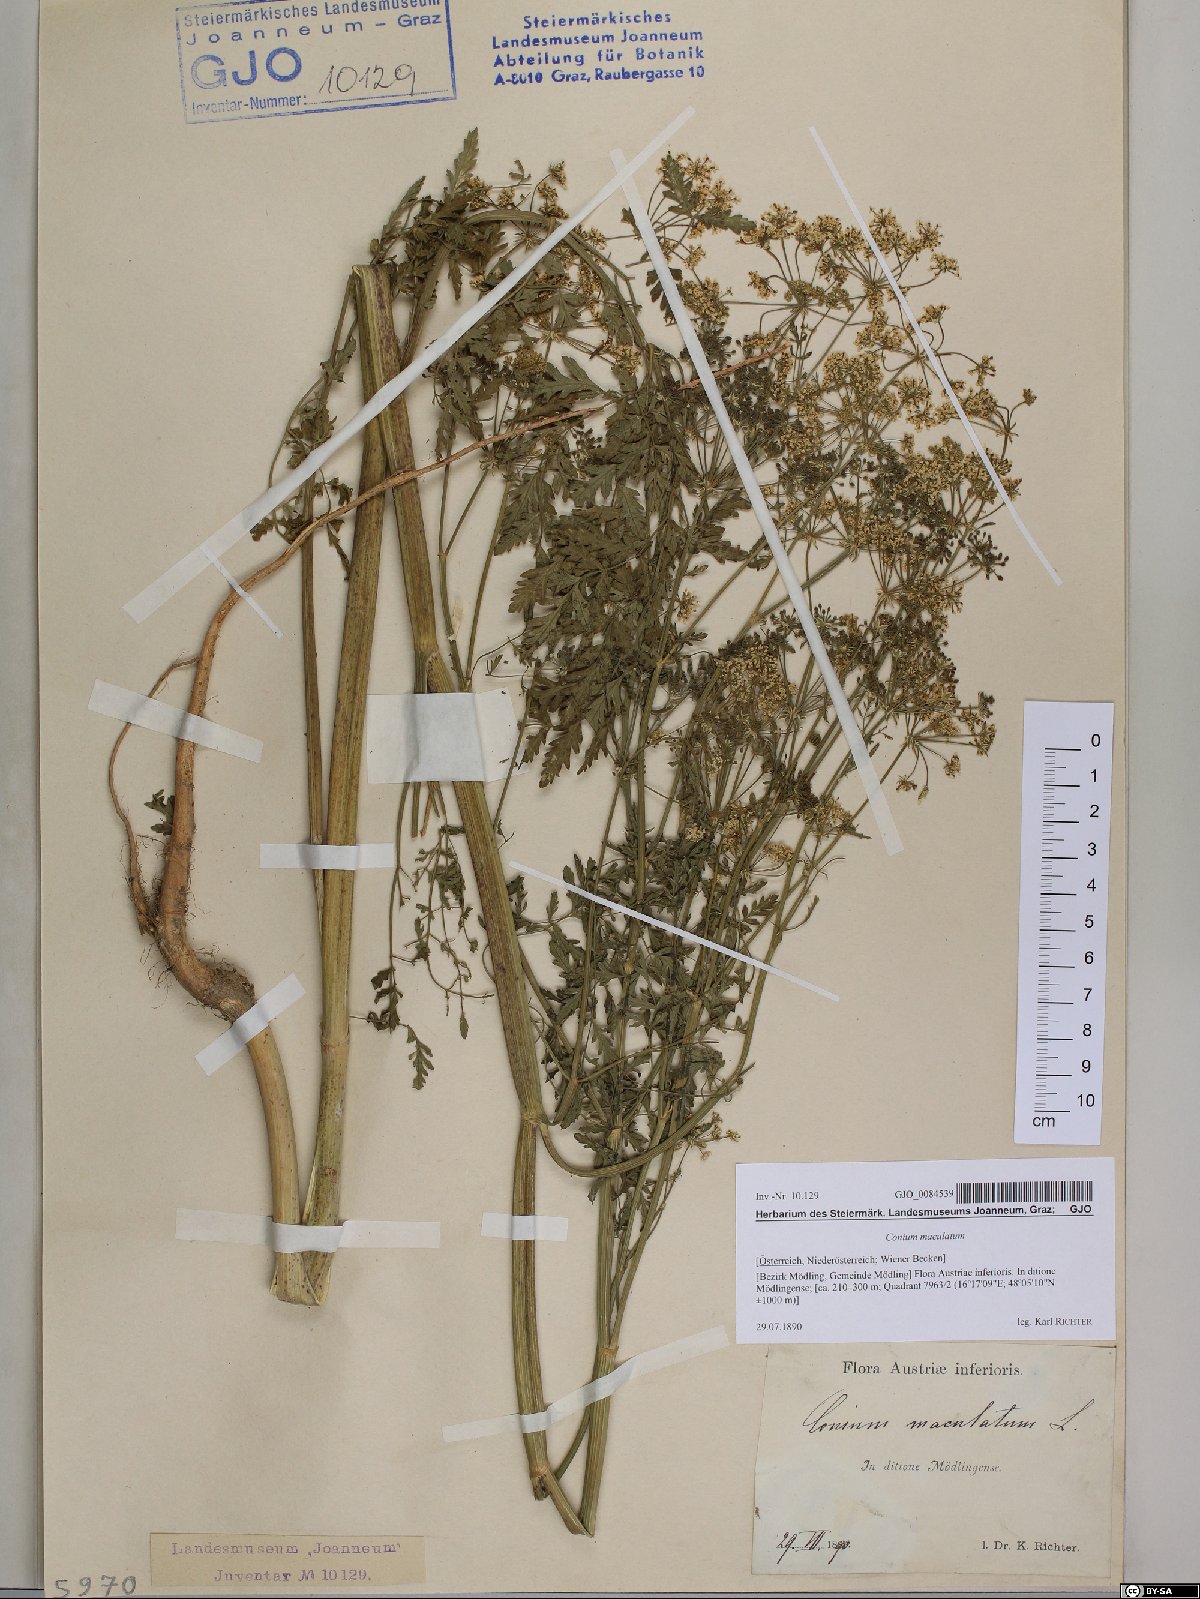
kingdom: Plantae
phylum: Tracheophyta
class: Magnoliopsida
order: Apiales
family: Apiaceae
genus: Conium
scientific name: Conium maculatum
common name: Hemlock
